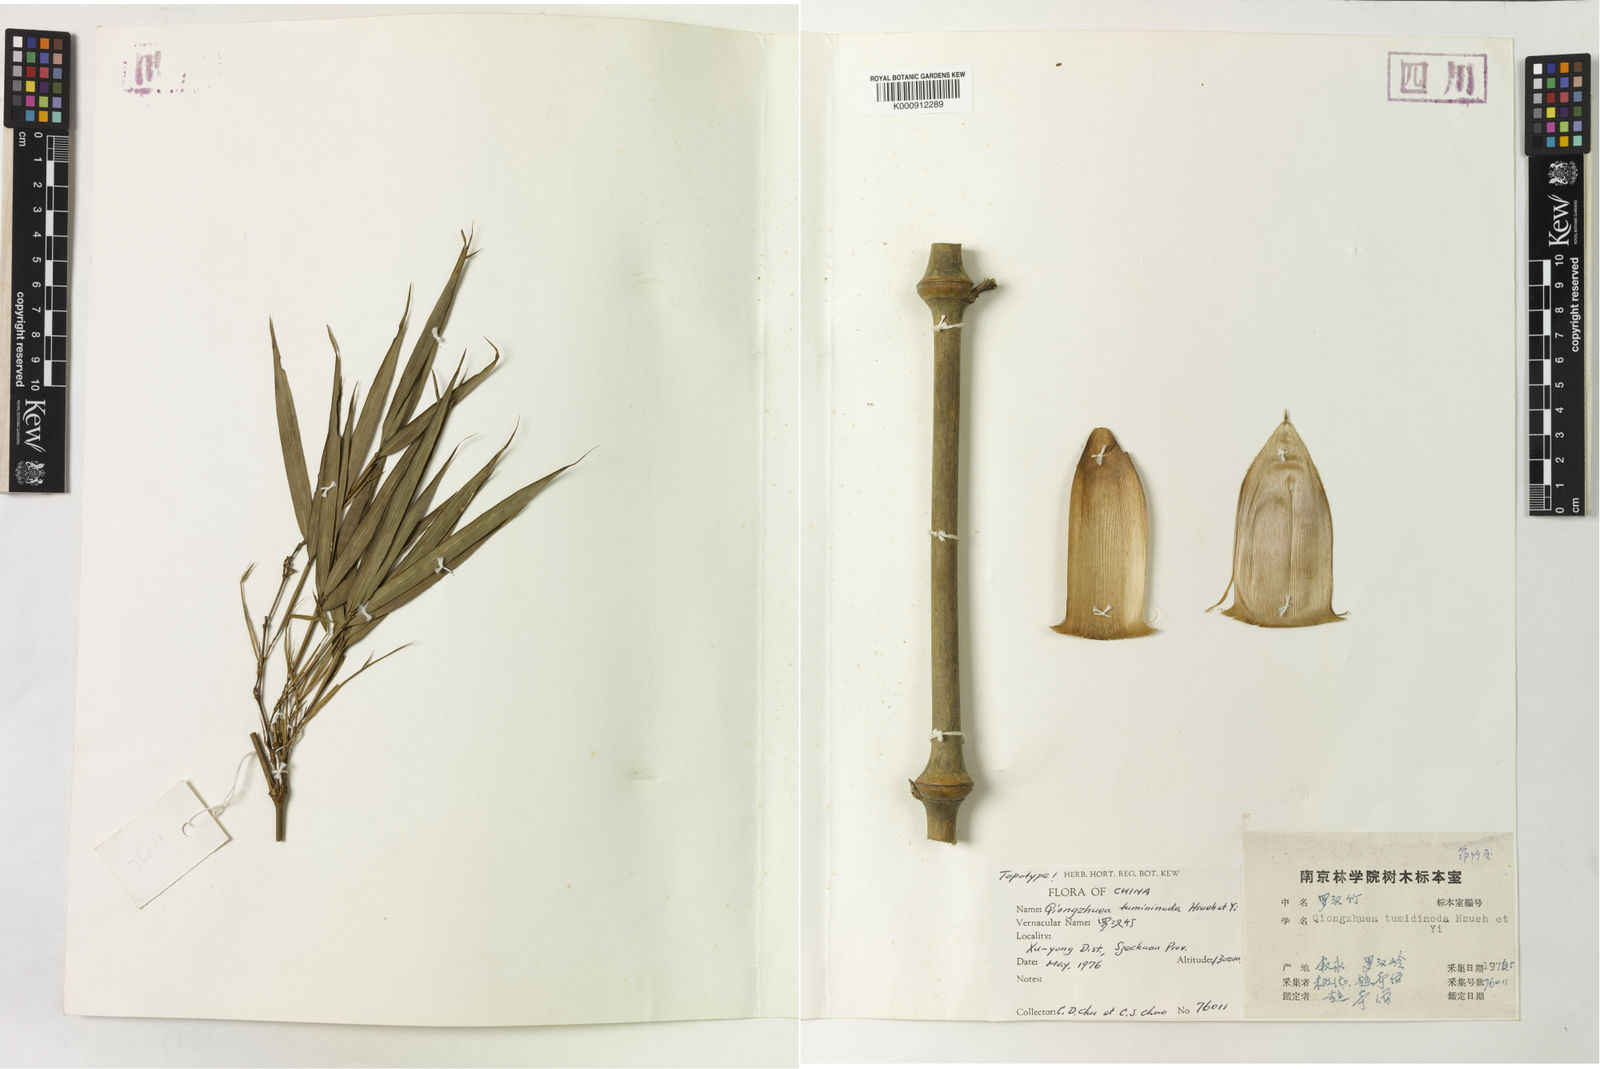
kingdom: Plantae
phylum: Tracheophyta
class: Liliopsida
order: Poales
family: Poaceae
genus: Chimonobambusa
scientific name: Chimonobambusa tumidissinoda
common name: Tumid-node bamboo
